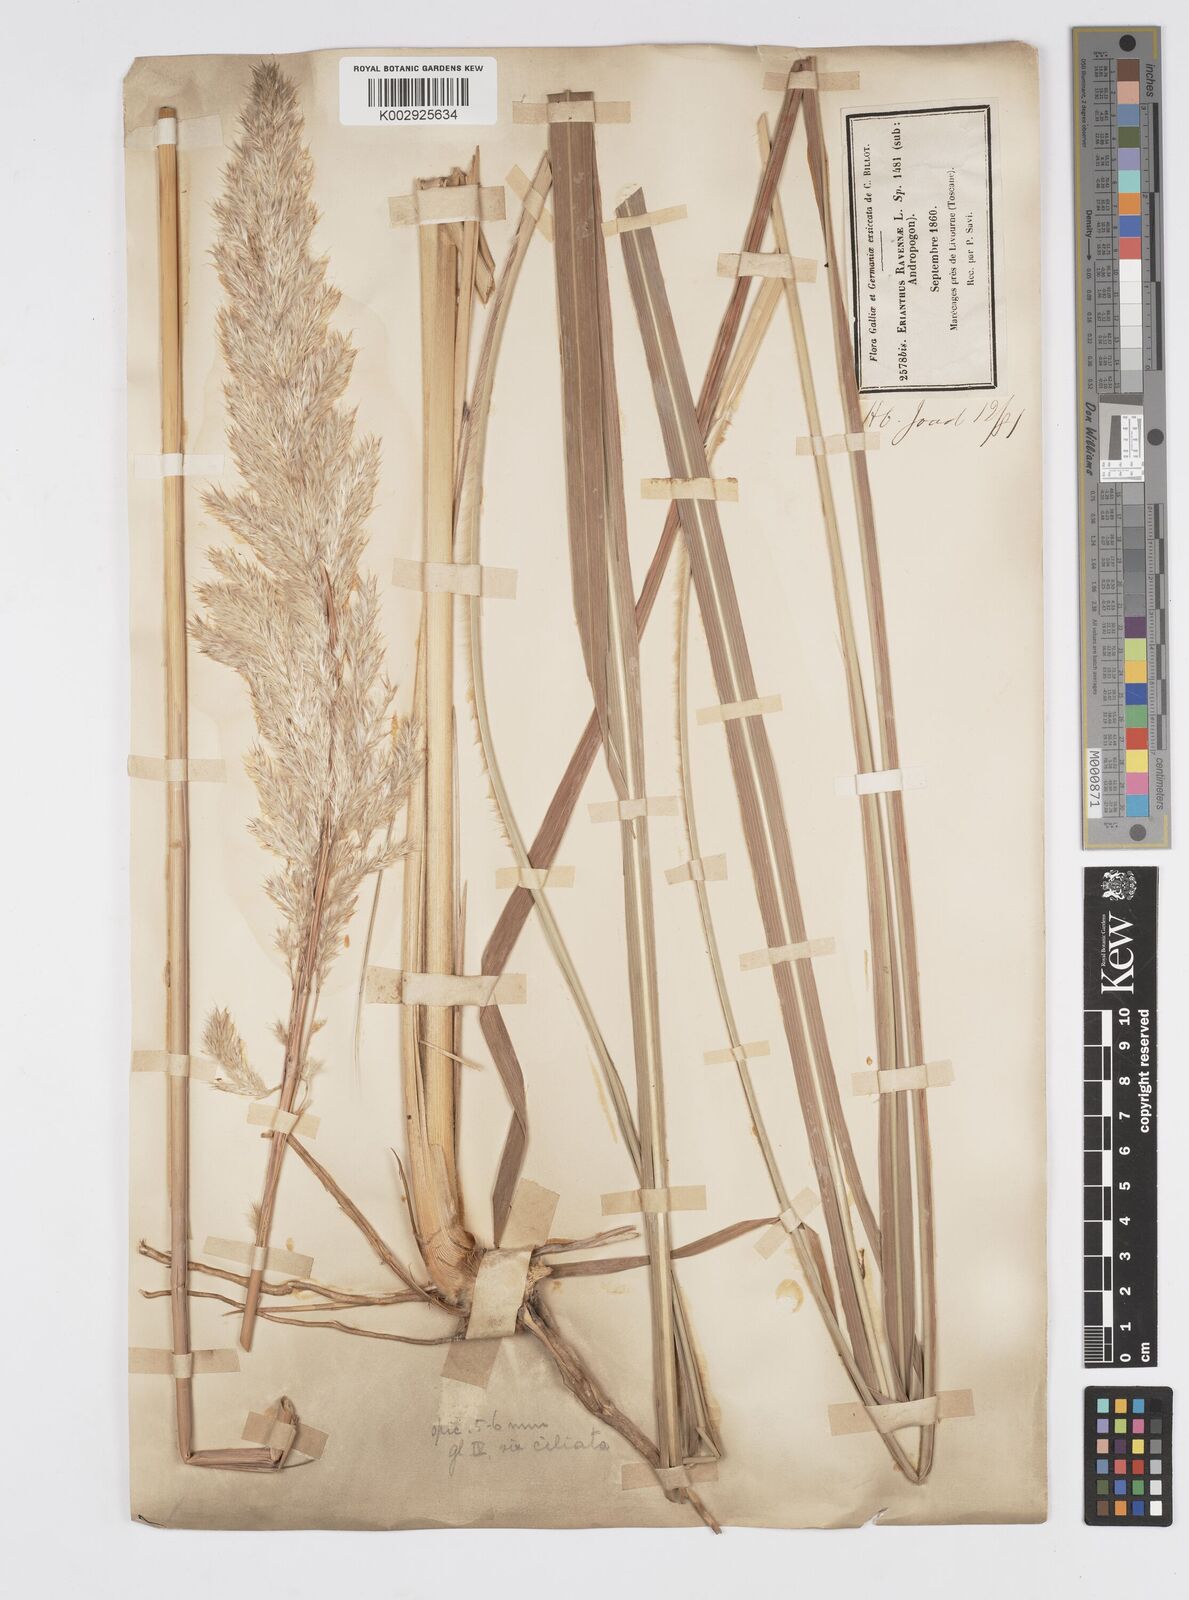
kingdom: Plantae
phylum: Tracheophyta
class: Liliopsida
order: Poales
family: Poaceae
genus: Tripidium
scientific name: Tripidium ravennae
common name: Ravenna grass
